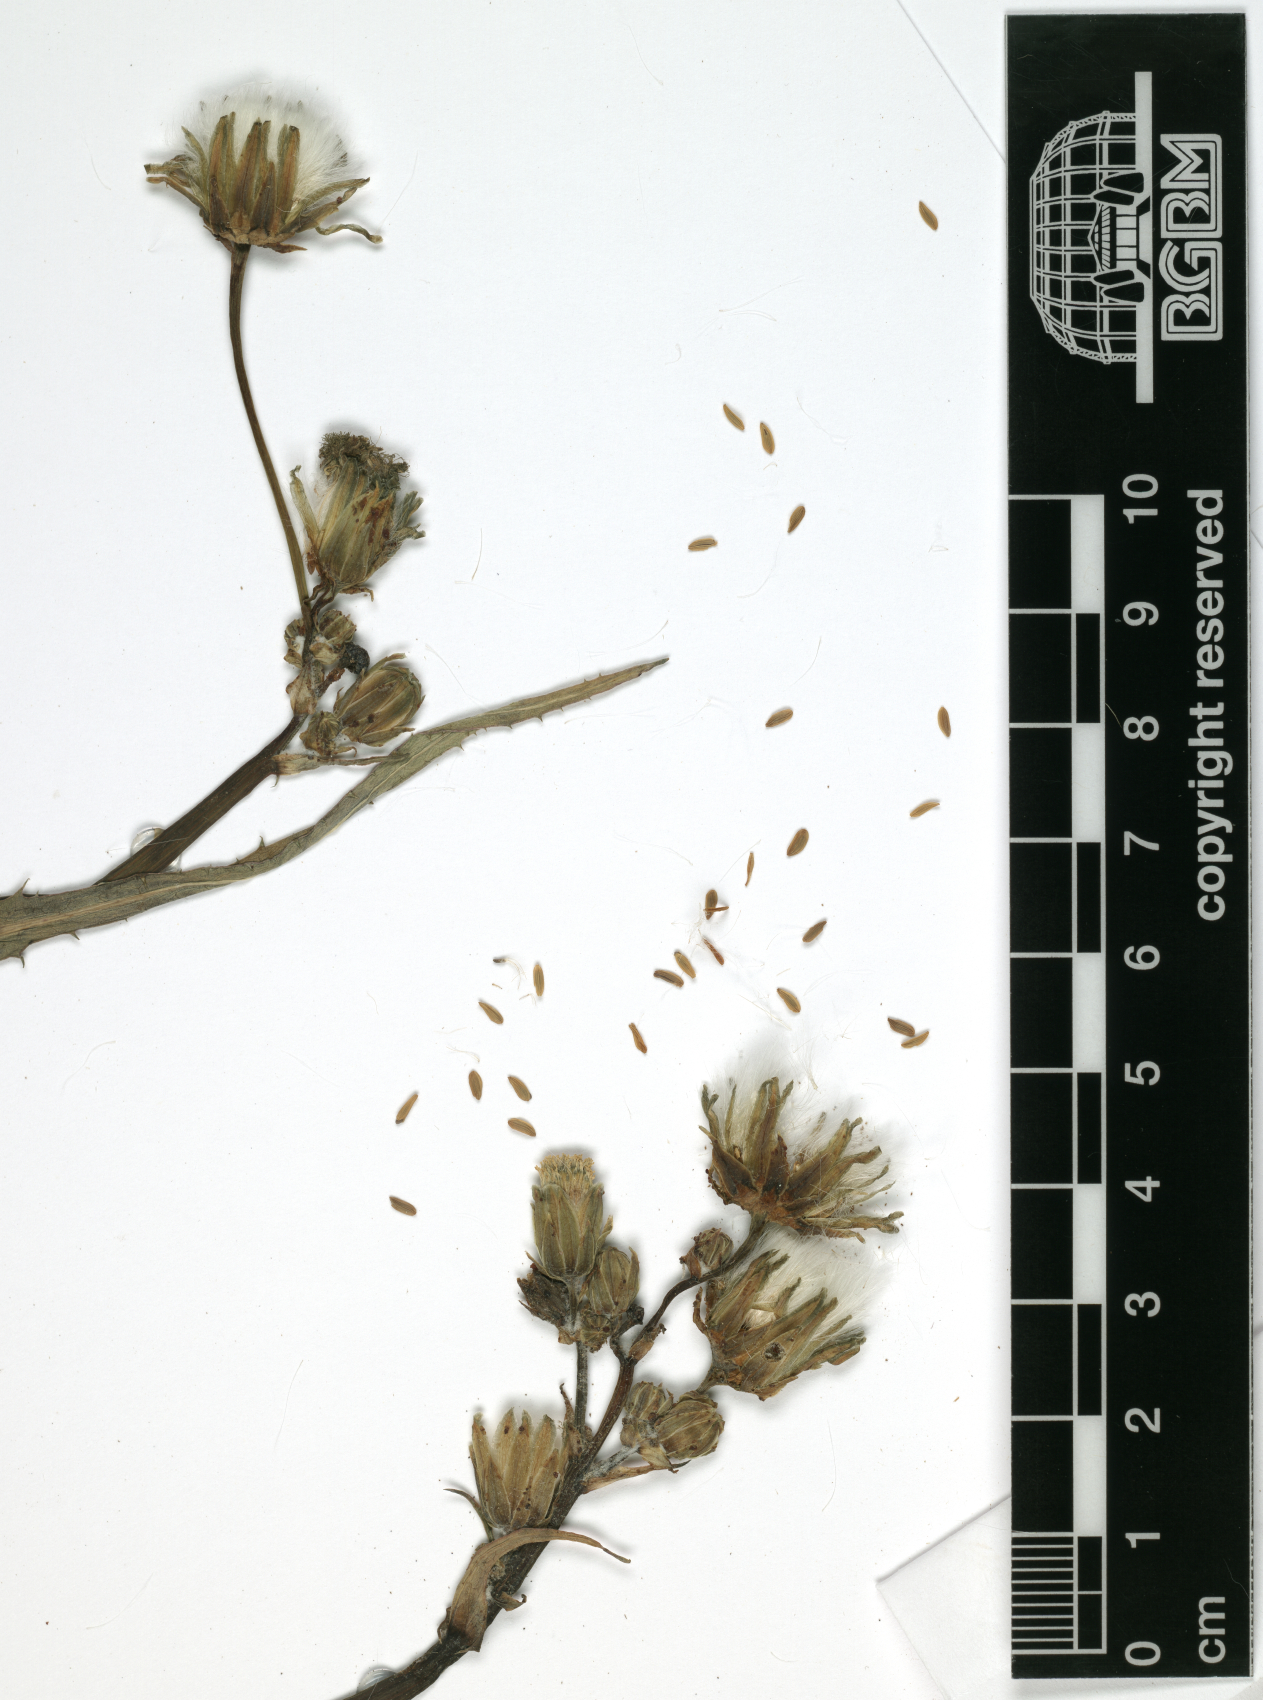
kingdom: Plantae
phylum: Tracheophyta
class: Magnoliopsida
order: Asterales
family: Asteraceae
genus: Sonchus
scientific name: Sonchus asper
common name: Prickly sow-thistle
